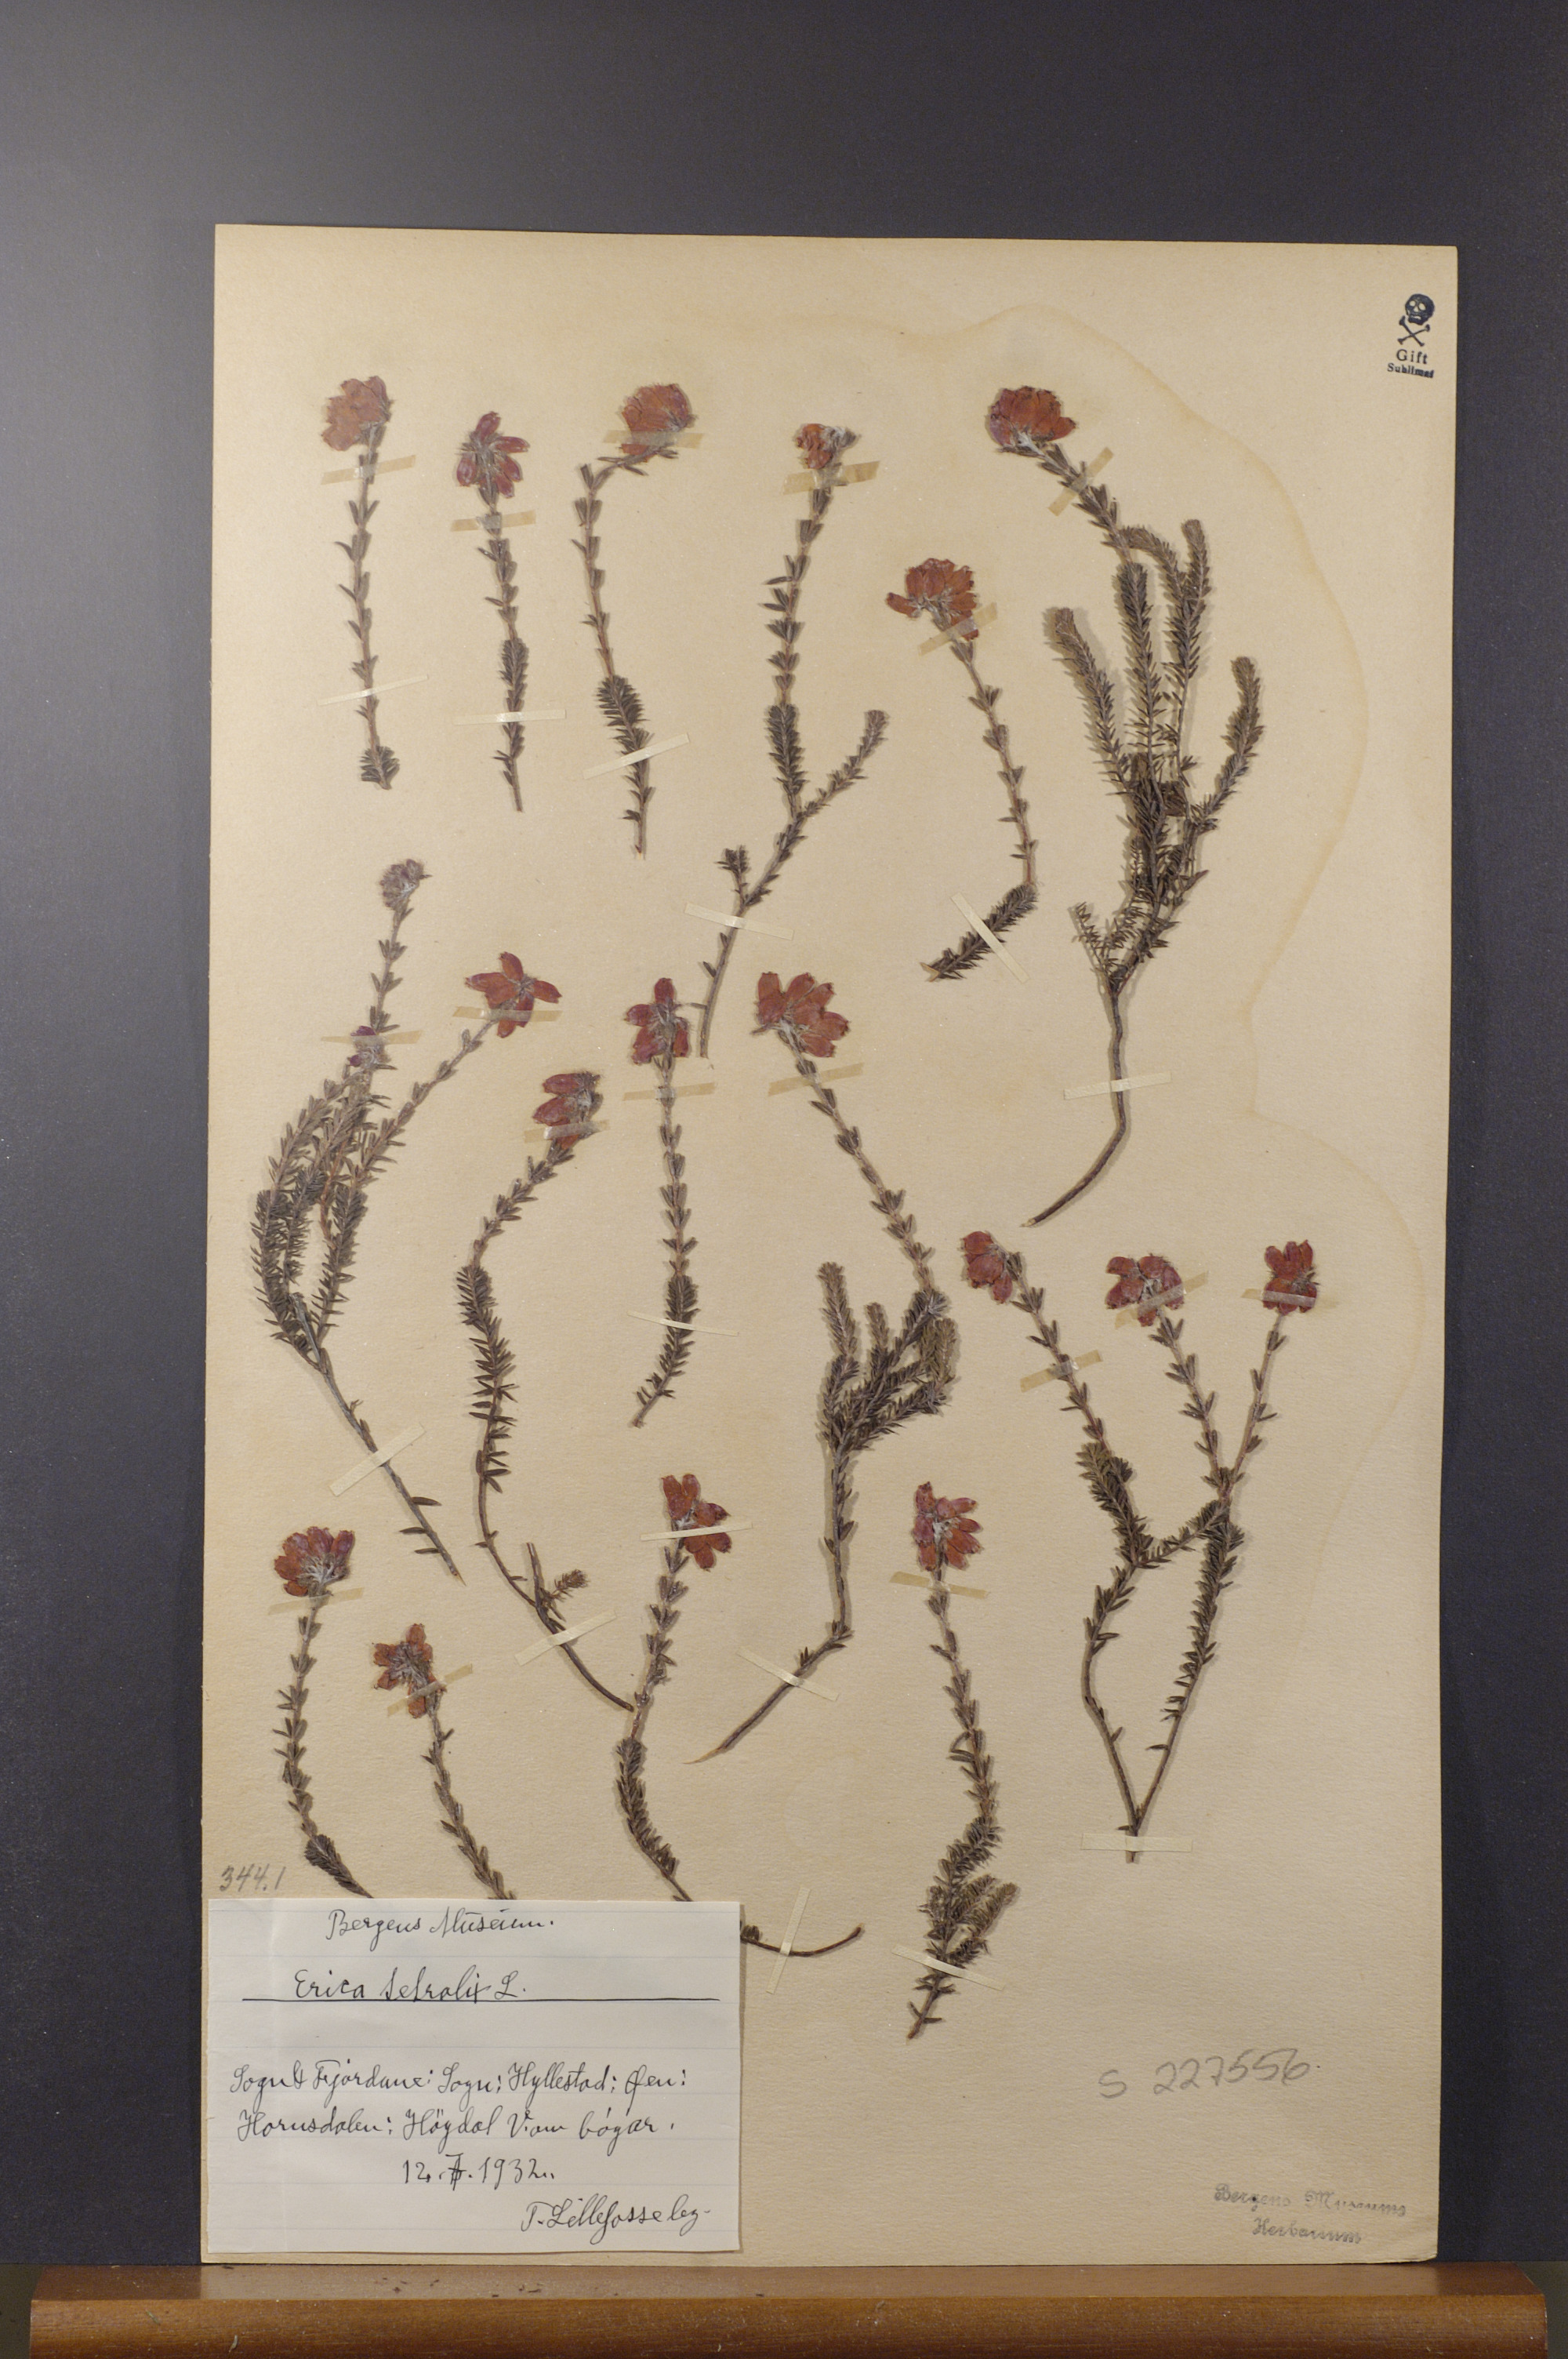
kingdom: Plantae
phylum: Tracheophyta
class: Magnoliopsida
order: Ericales
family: Ericaceae
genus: Erica
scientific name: Erica tetralix
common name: Cross-leaved heath
